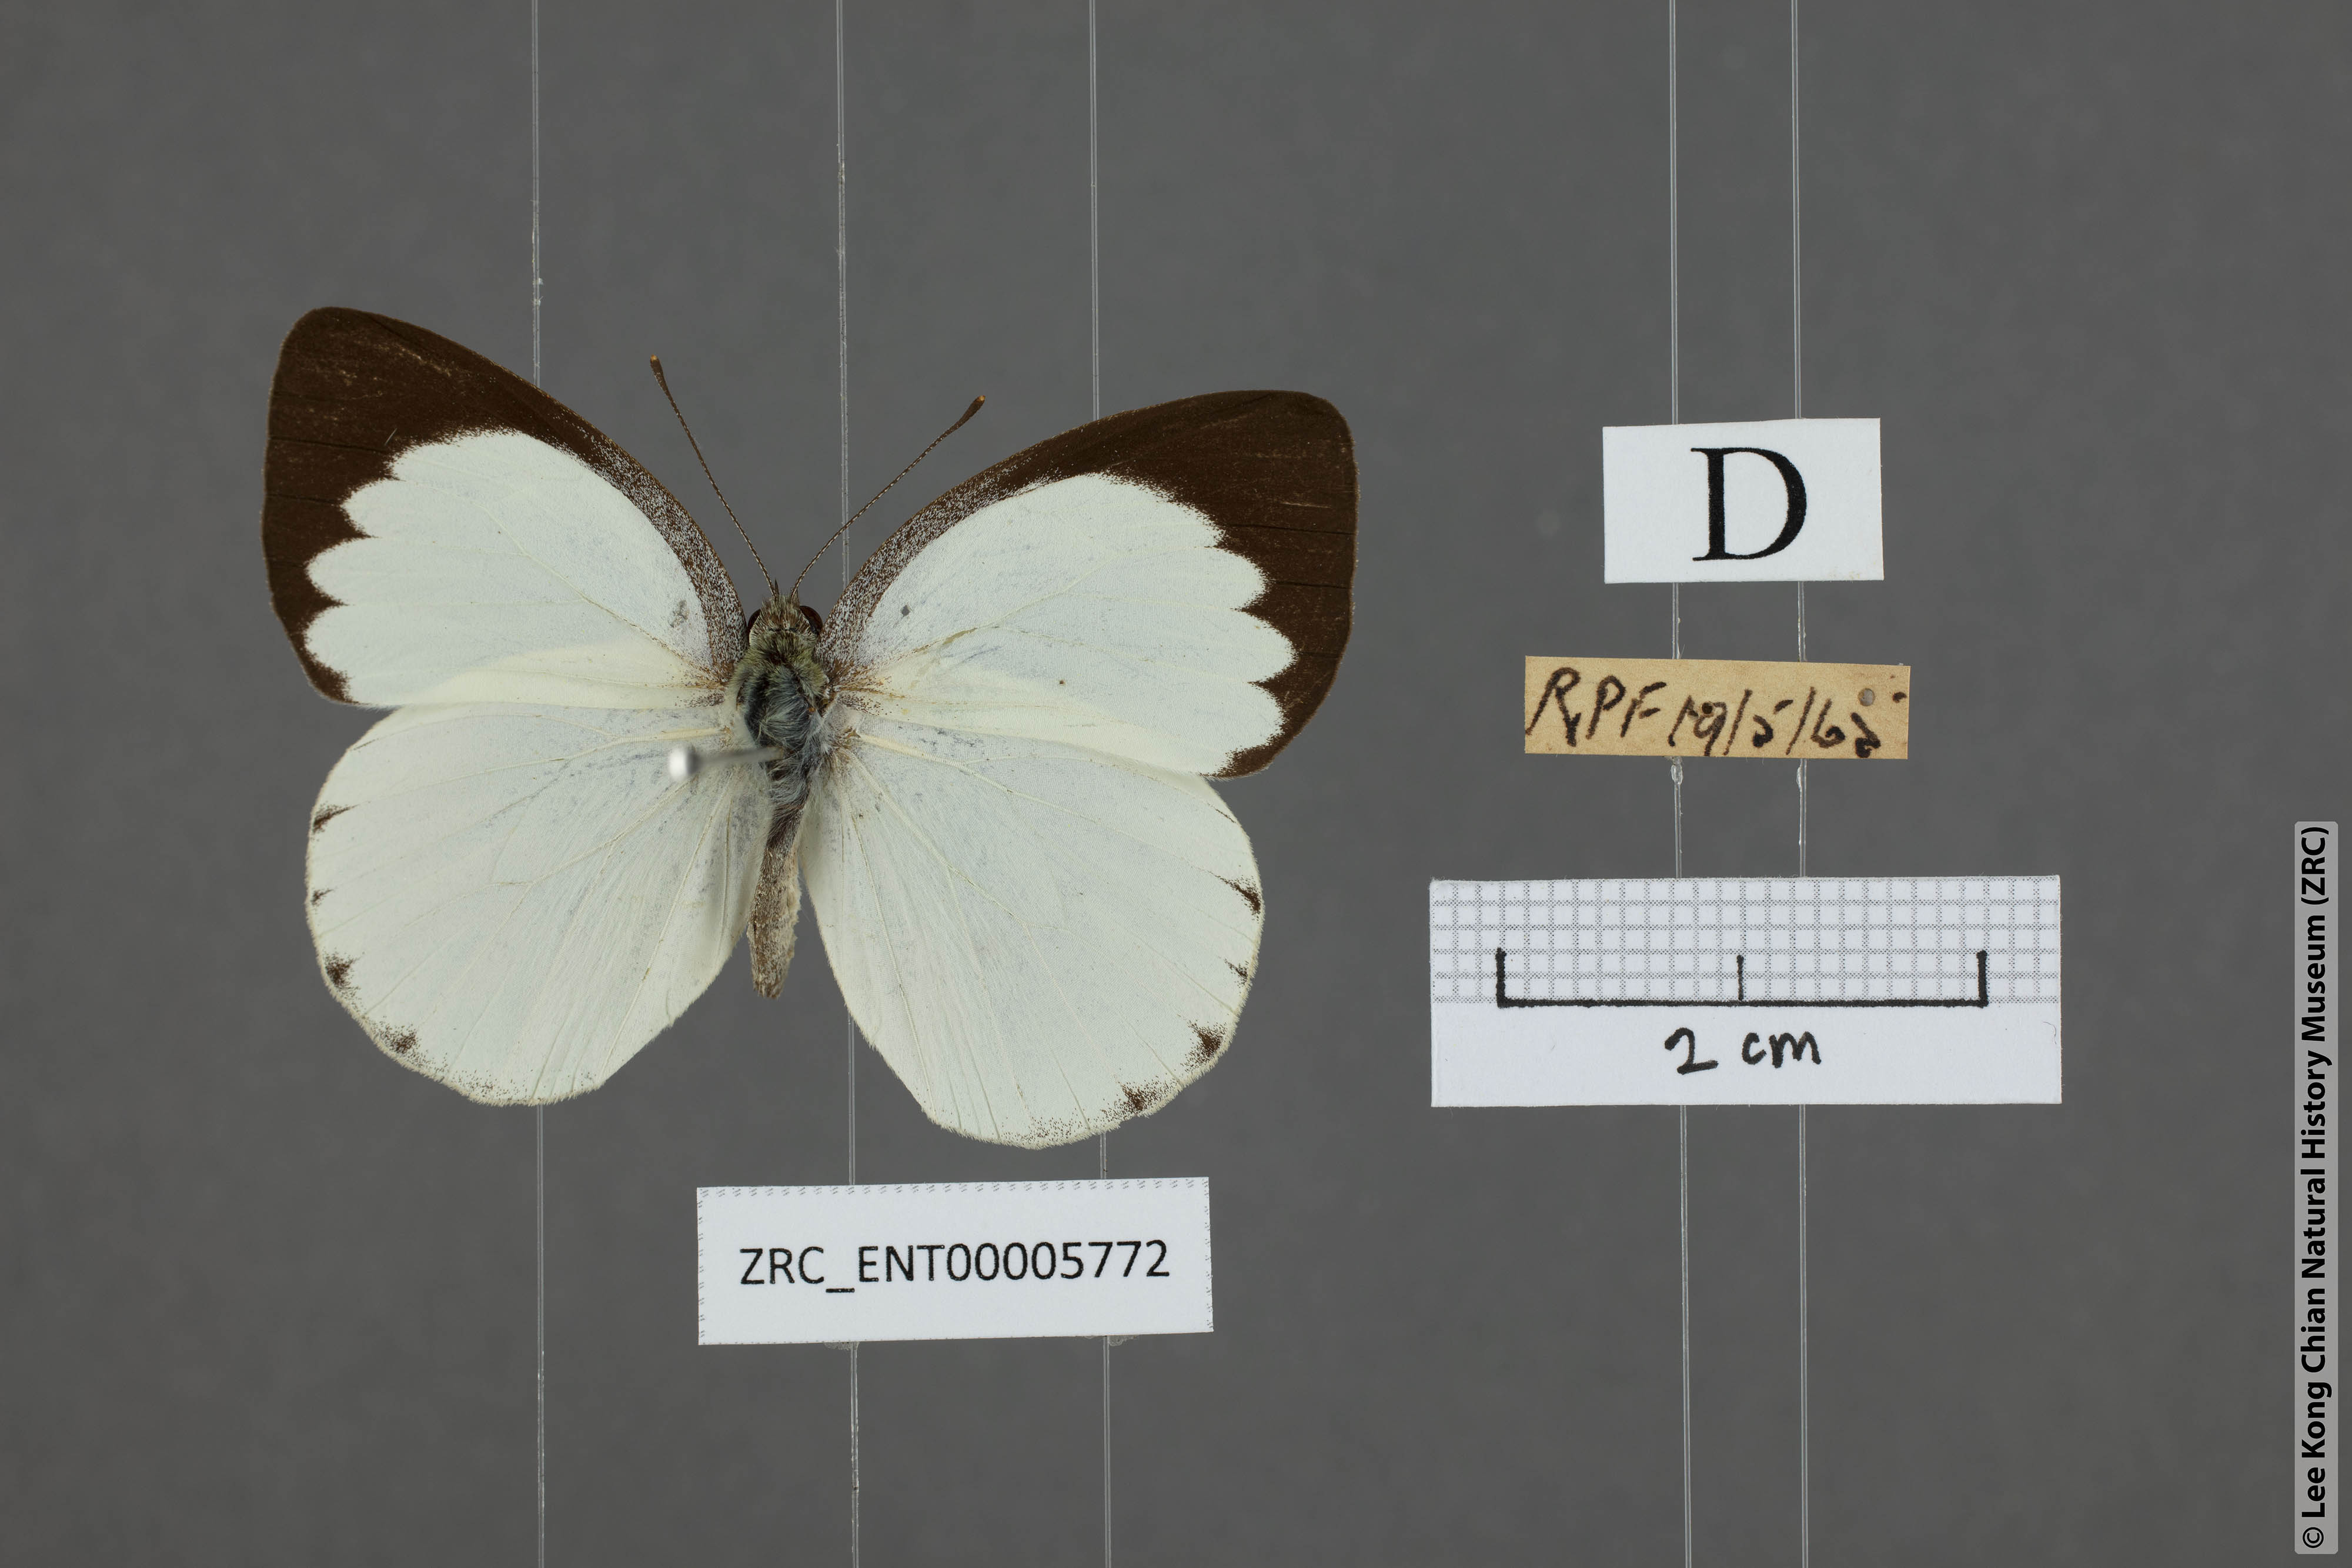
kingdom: Animalia
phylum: Arthropoda
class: Insecta
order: Lepidoptera
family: Pieridae
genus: Phrissura
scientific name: Phrissura aegis
